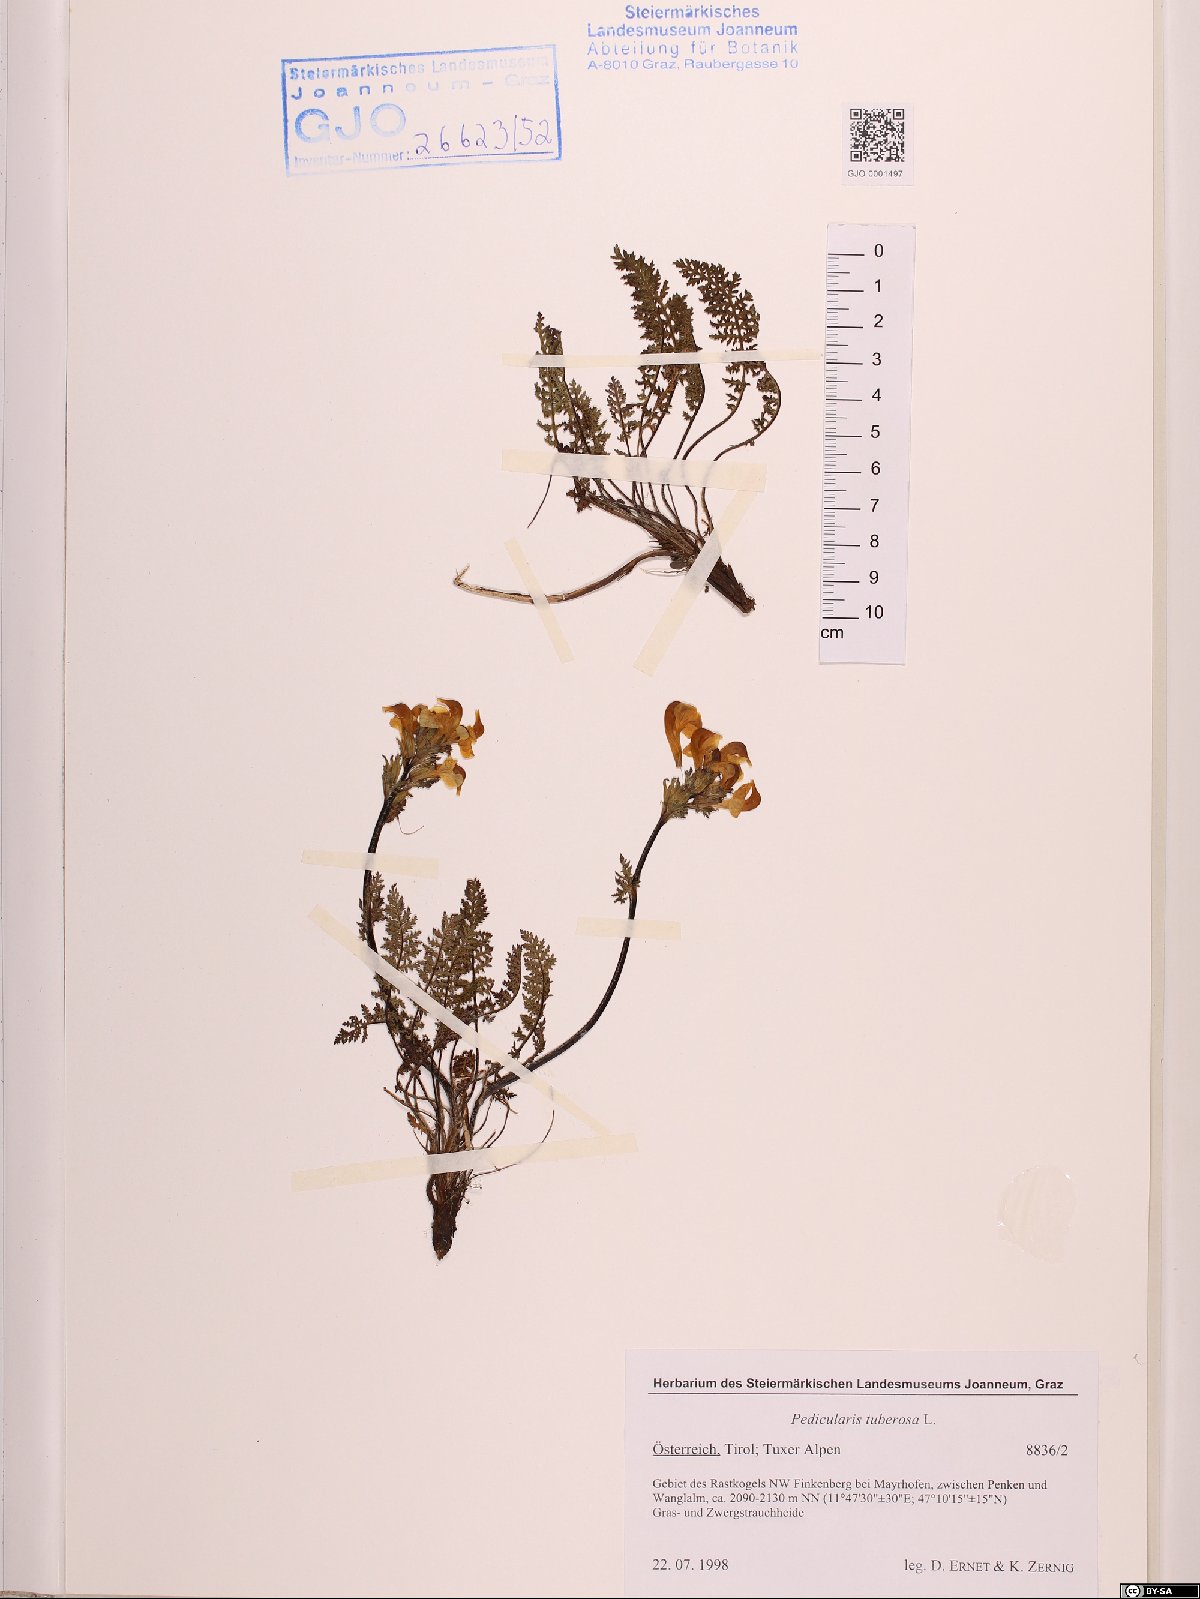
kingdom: Plantae
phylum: Tracheophyta
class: Magnoliopsida
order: Lamiales
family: Orobanchaceae
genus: Pedicularis
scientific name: Pedicularis tuberosa
